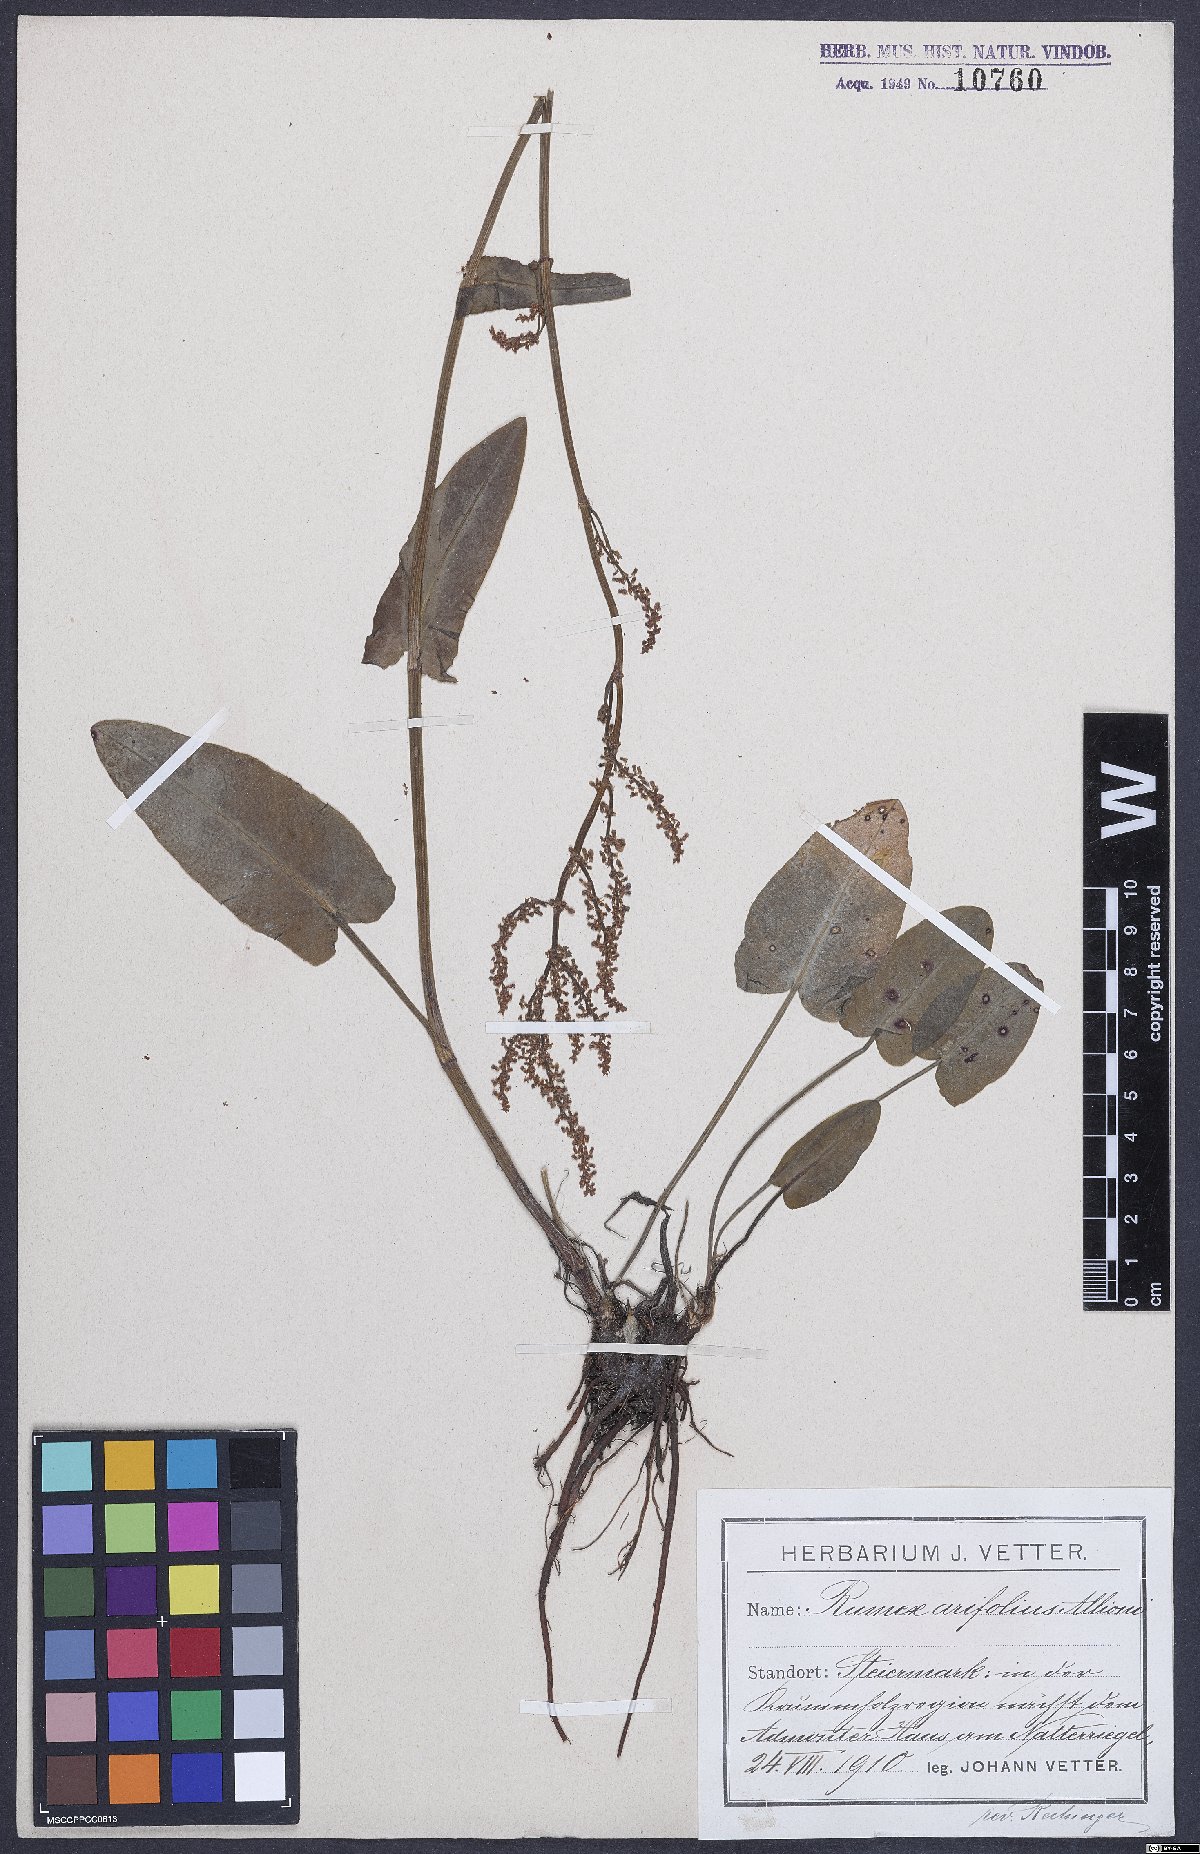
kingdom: Plantae
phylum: Tracheophyta
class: Magnoliopsida
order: Caryophyllales
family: Polygonaceae
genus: Rumex
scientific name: Rumex arifolius
